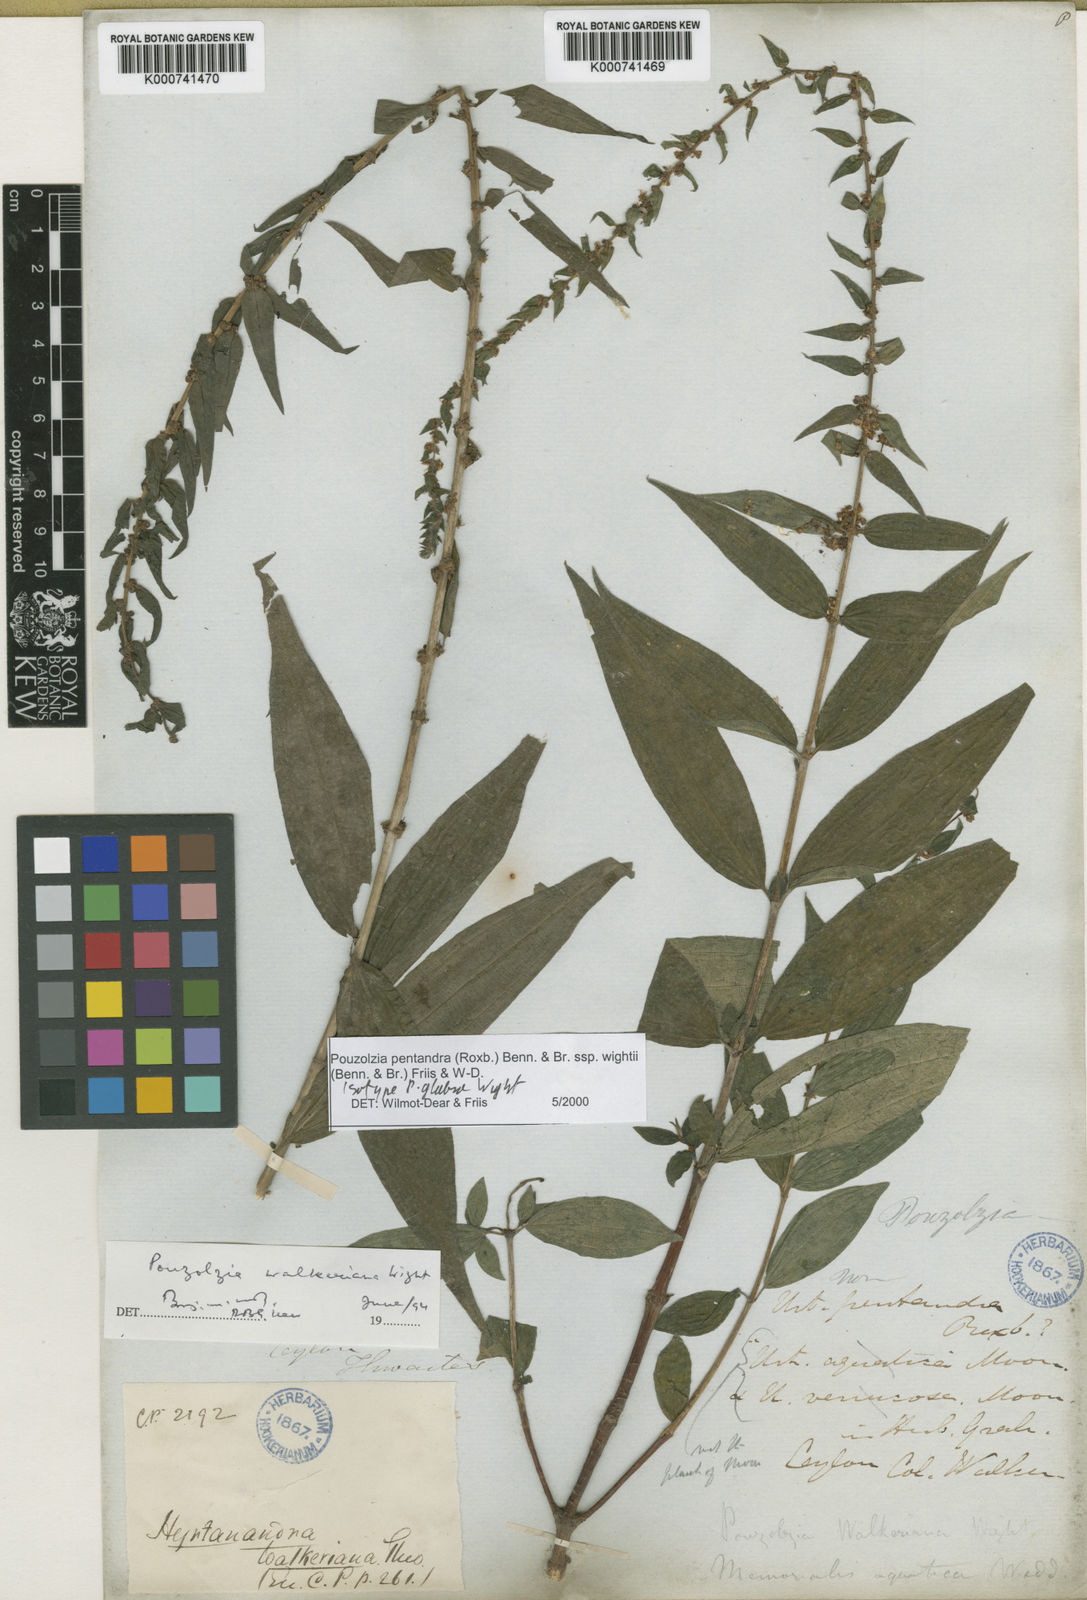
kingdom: Plantae
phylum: Tracheophyta
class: Magnoliopsida
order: Rosales
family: Urticaceae
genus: Gonostegia
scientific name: Gonostegia pentandra
